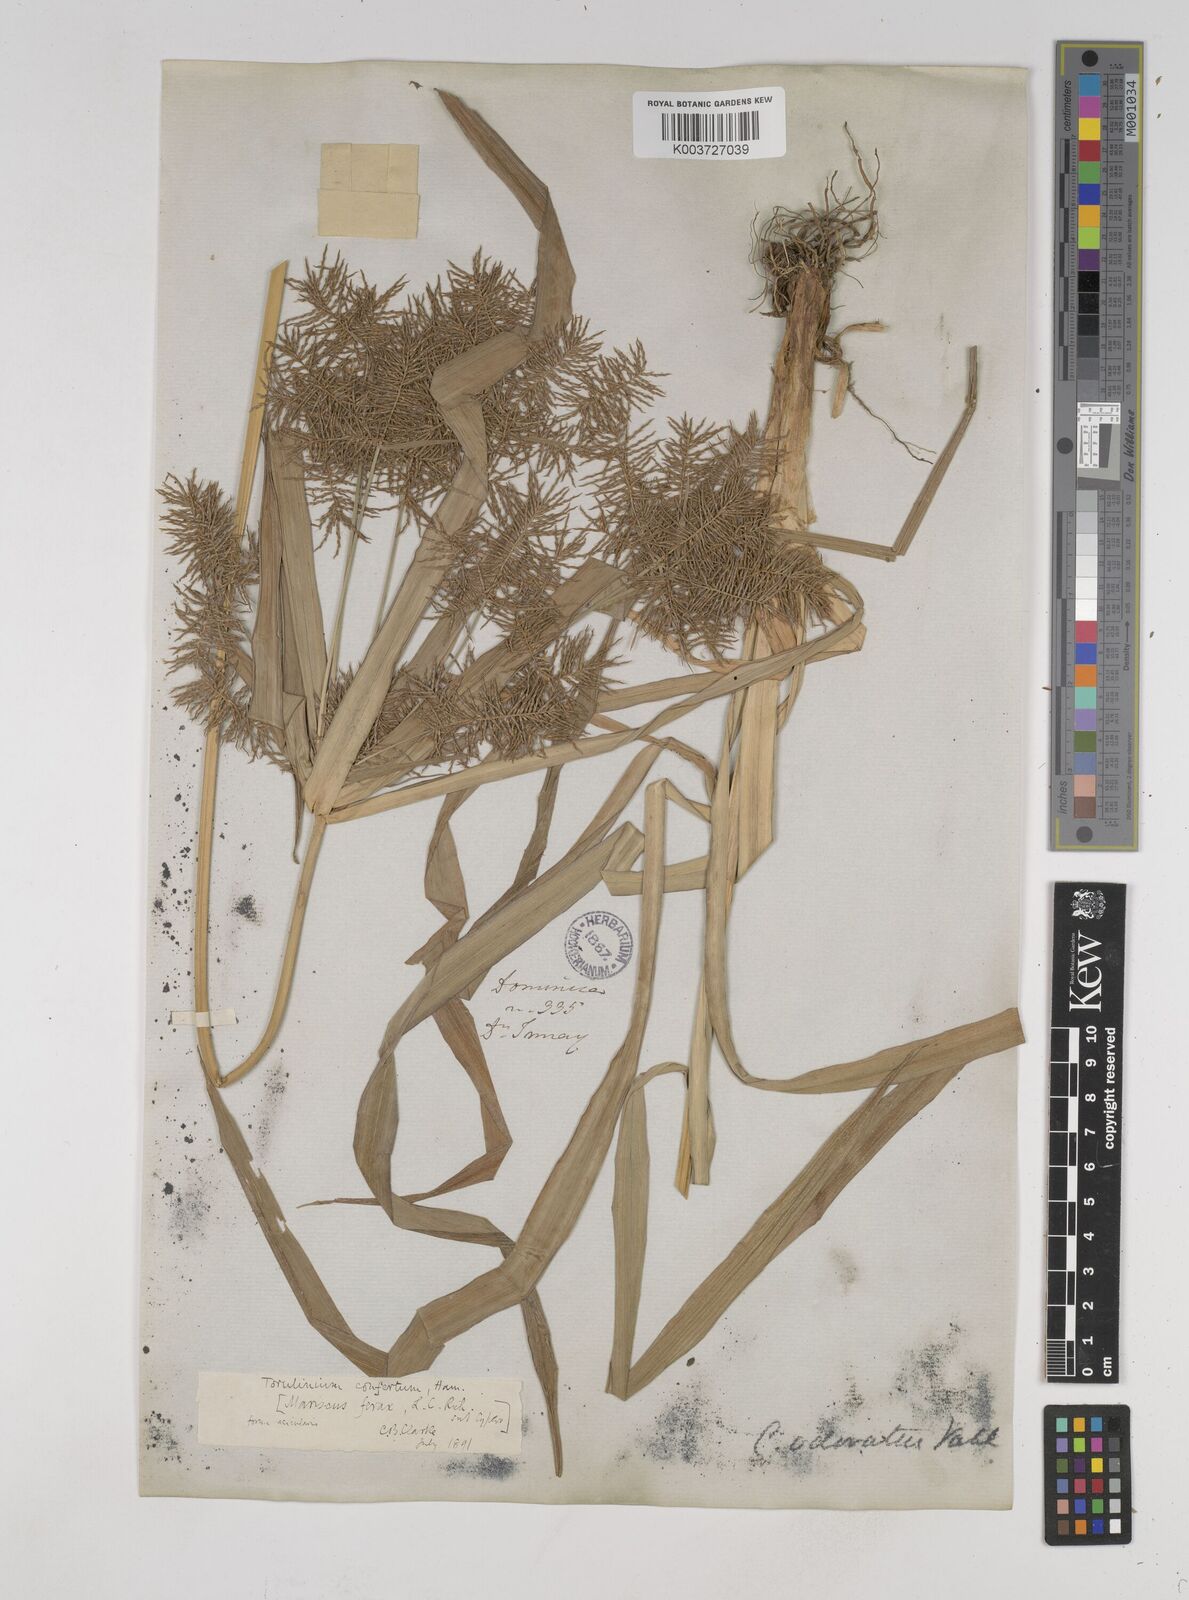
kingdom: Plantae
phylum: Tracheophyta
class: Liliopsida
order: Poales
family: Cyperaceae
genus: Cyperus
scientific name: Cyperus odoratus
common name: Fragrant flatsedge
